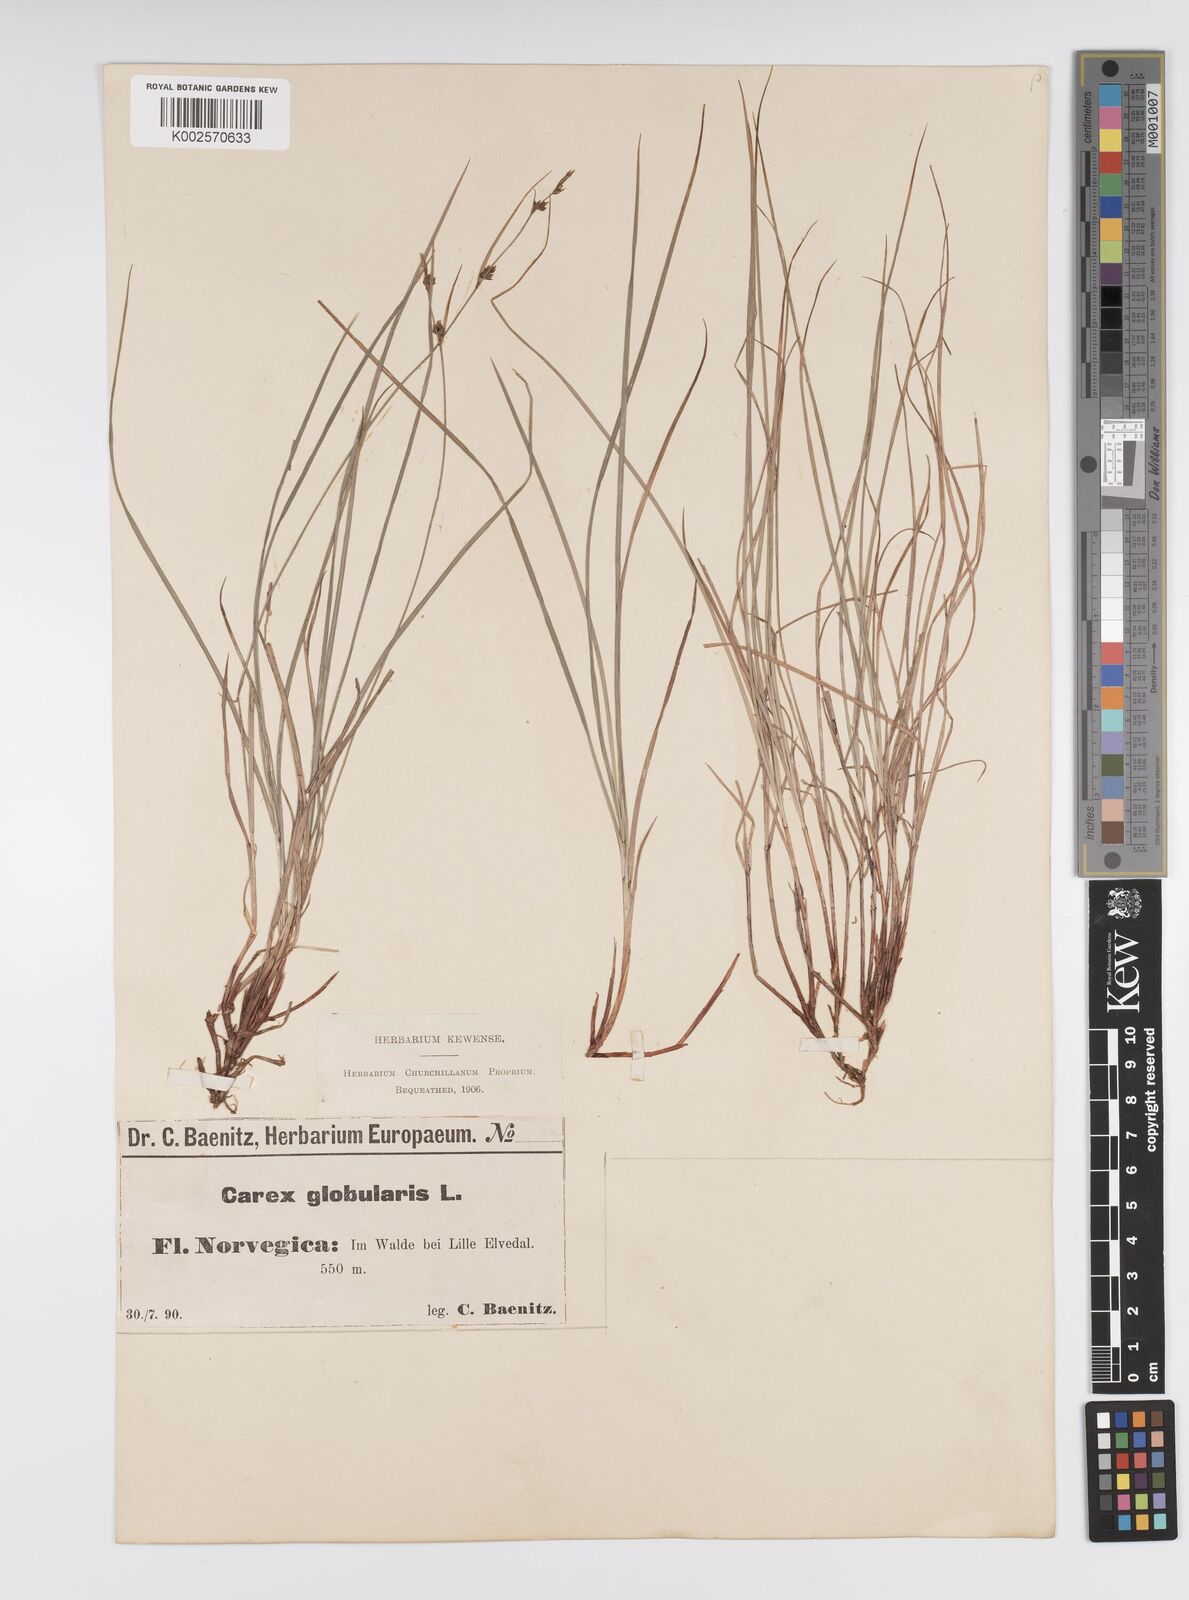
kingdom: Plantae
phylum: Tracheophyta
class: Liliopsida
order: Poales
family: Cyperaceae
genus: Carex
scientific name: Carex globularis
